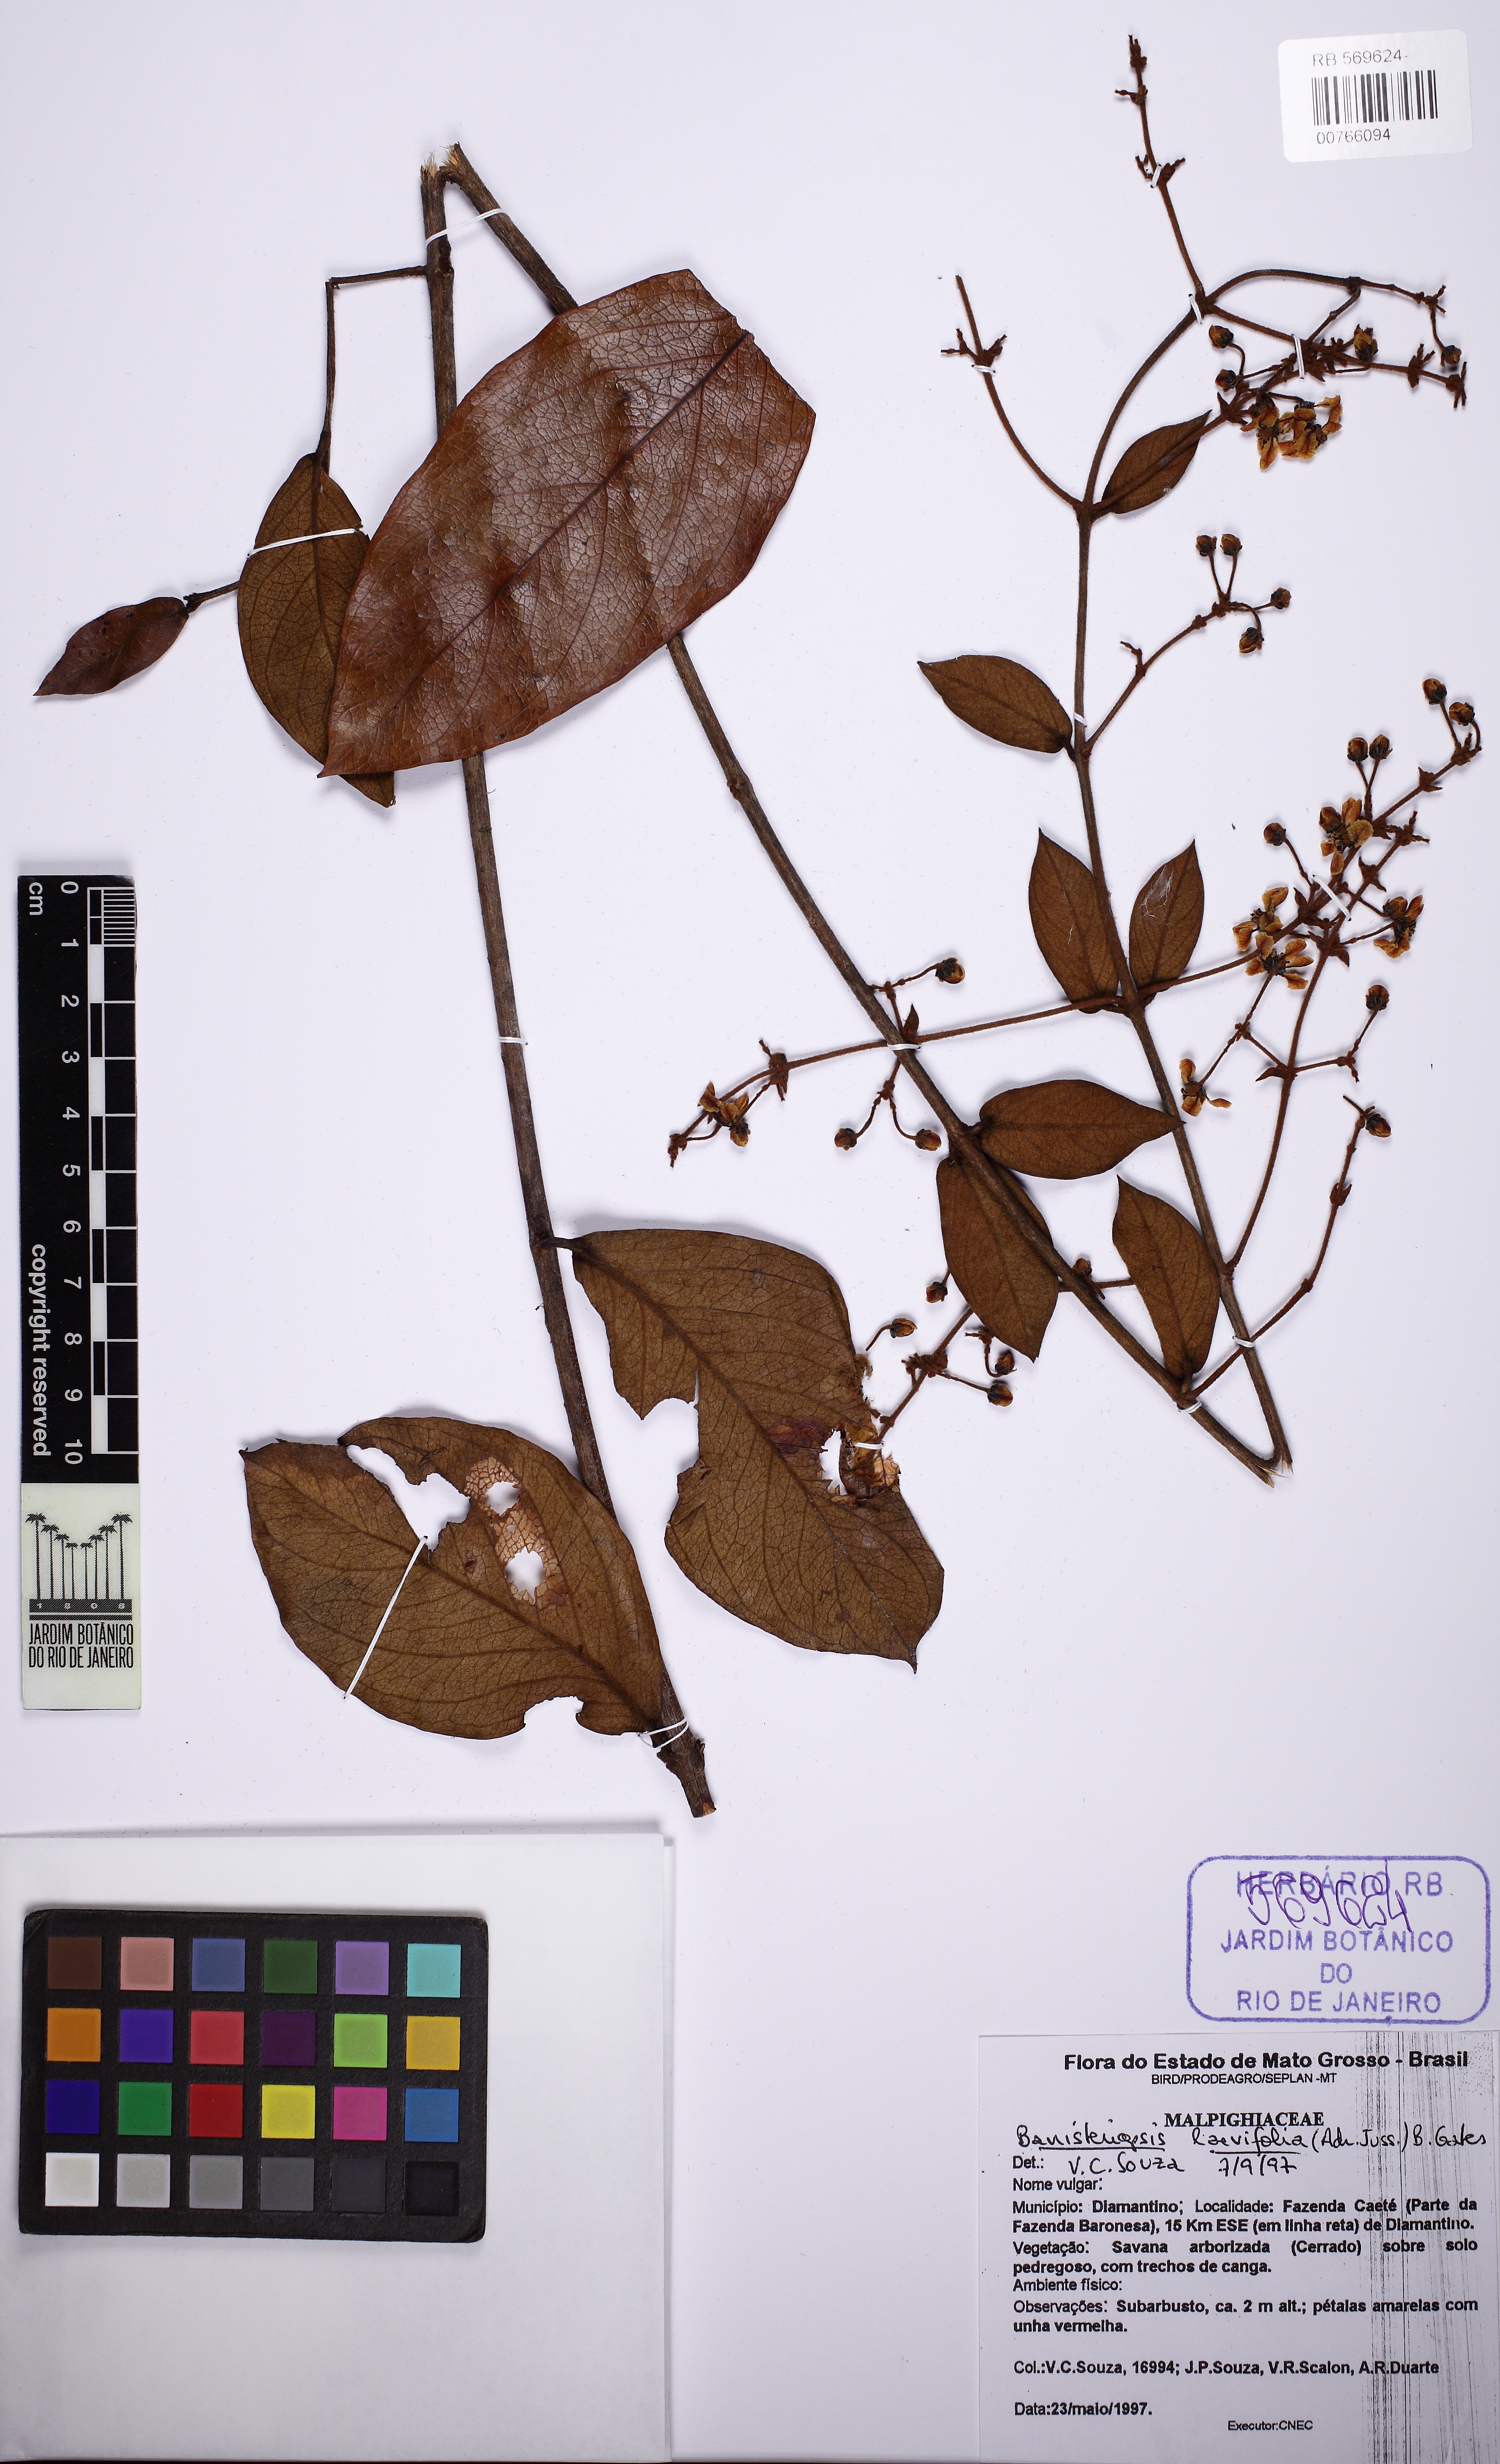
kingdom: Plantae
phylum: Tracheophyta
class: Magnoliopsida
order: Malpighiales
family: Malpighiaceae
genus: Banisteriopsis
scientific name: Banisteriopsis laevifolia
